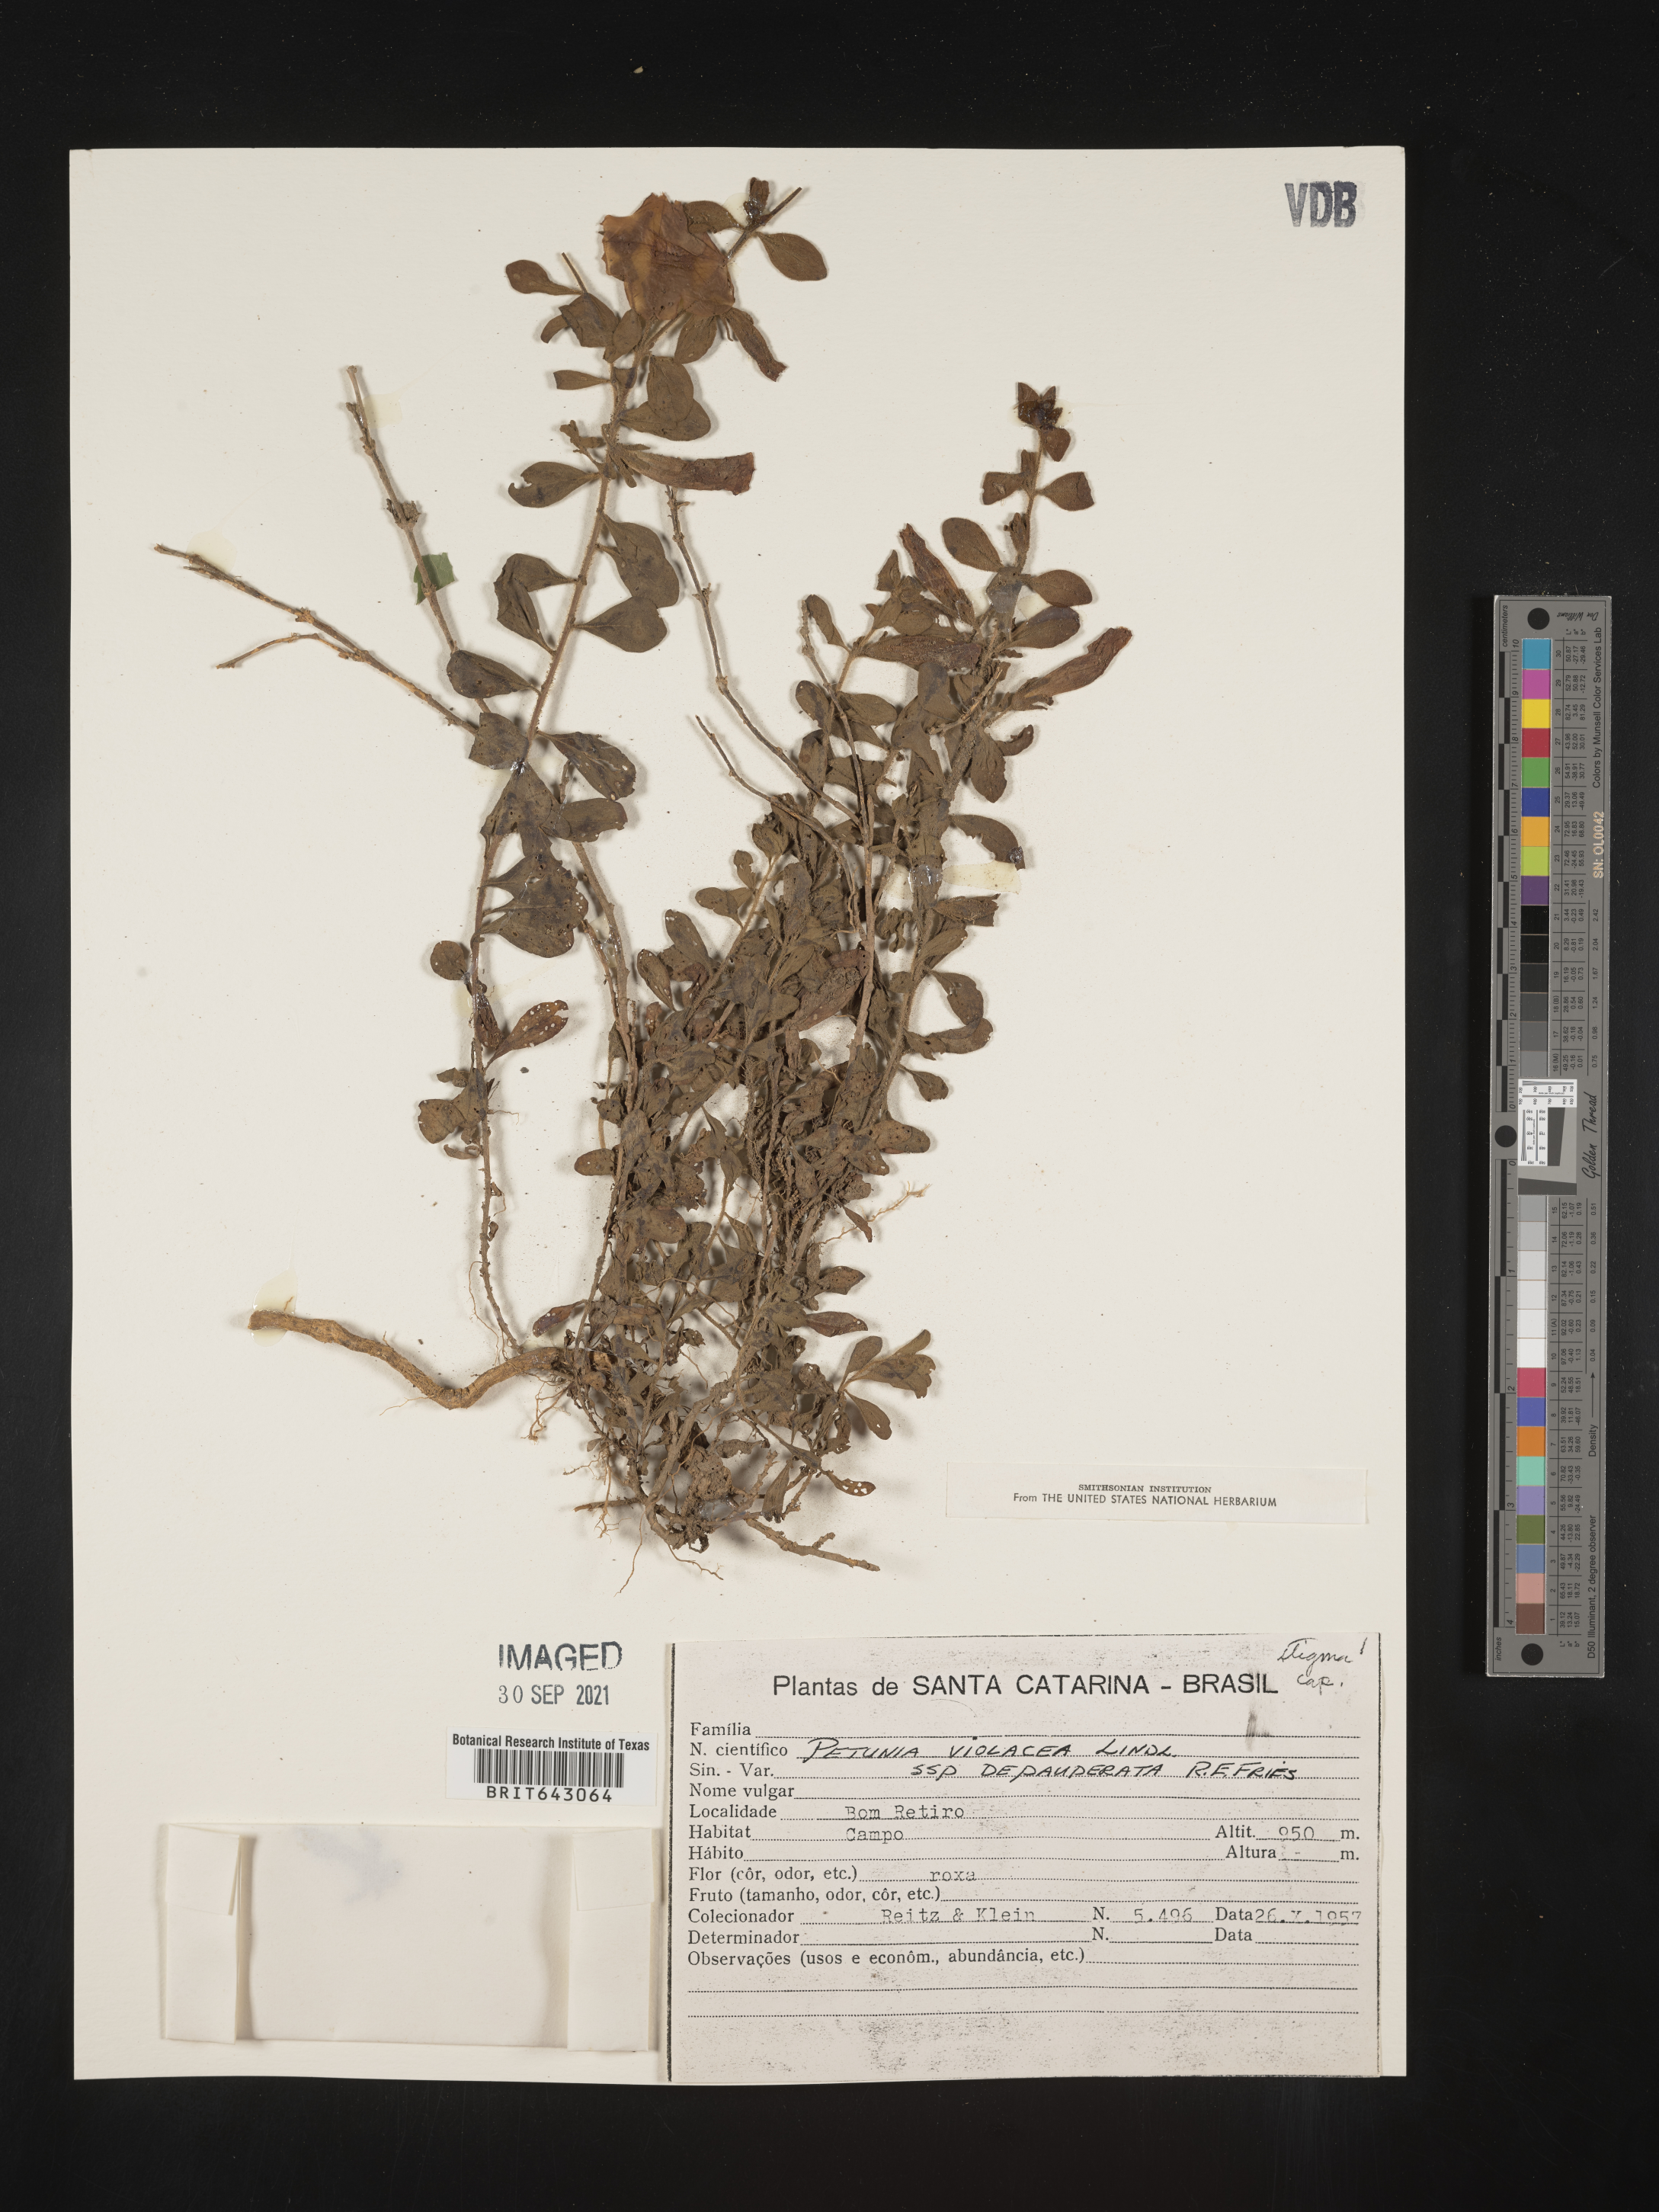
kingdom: Plantae
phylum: Tracheophyta
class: Magnoliopsida
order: Solanales
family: Solanaceae
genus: Petunia
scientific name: Petunia
